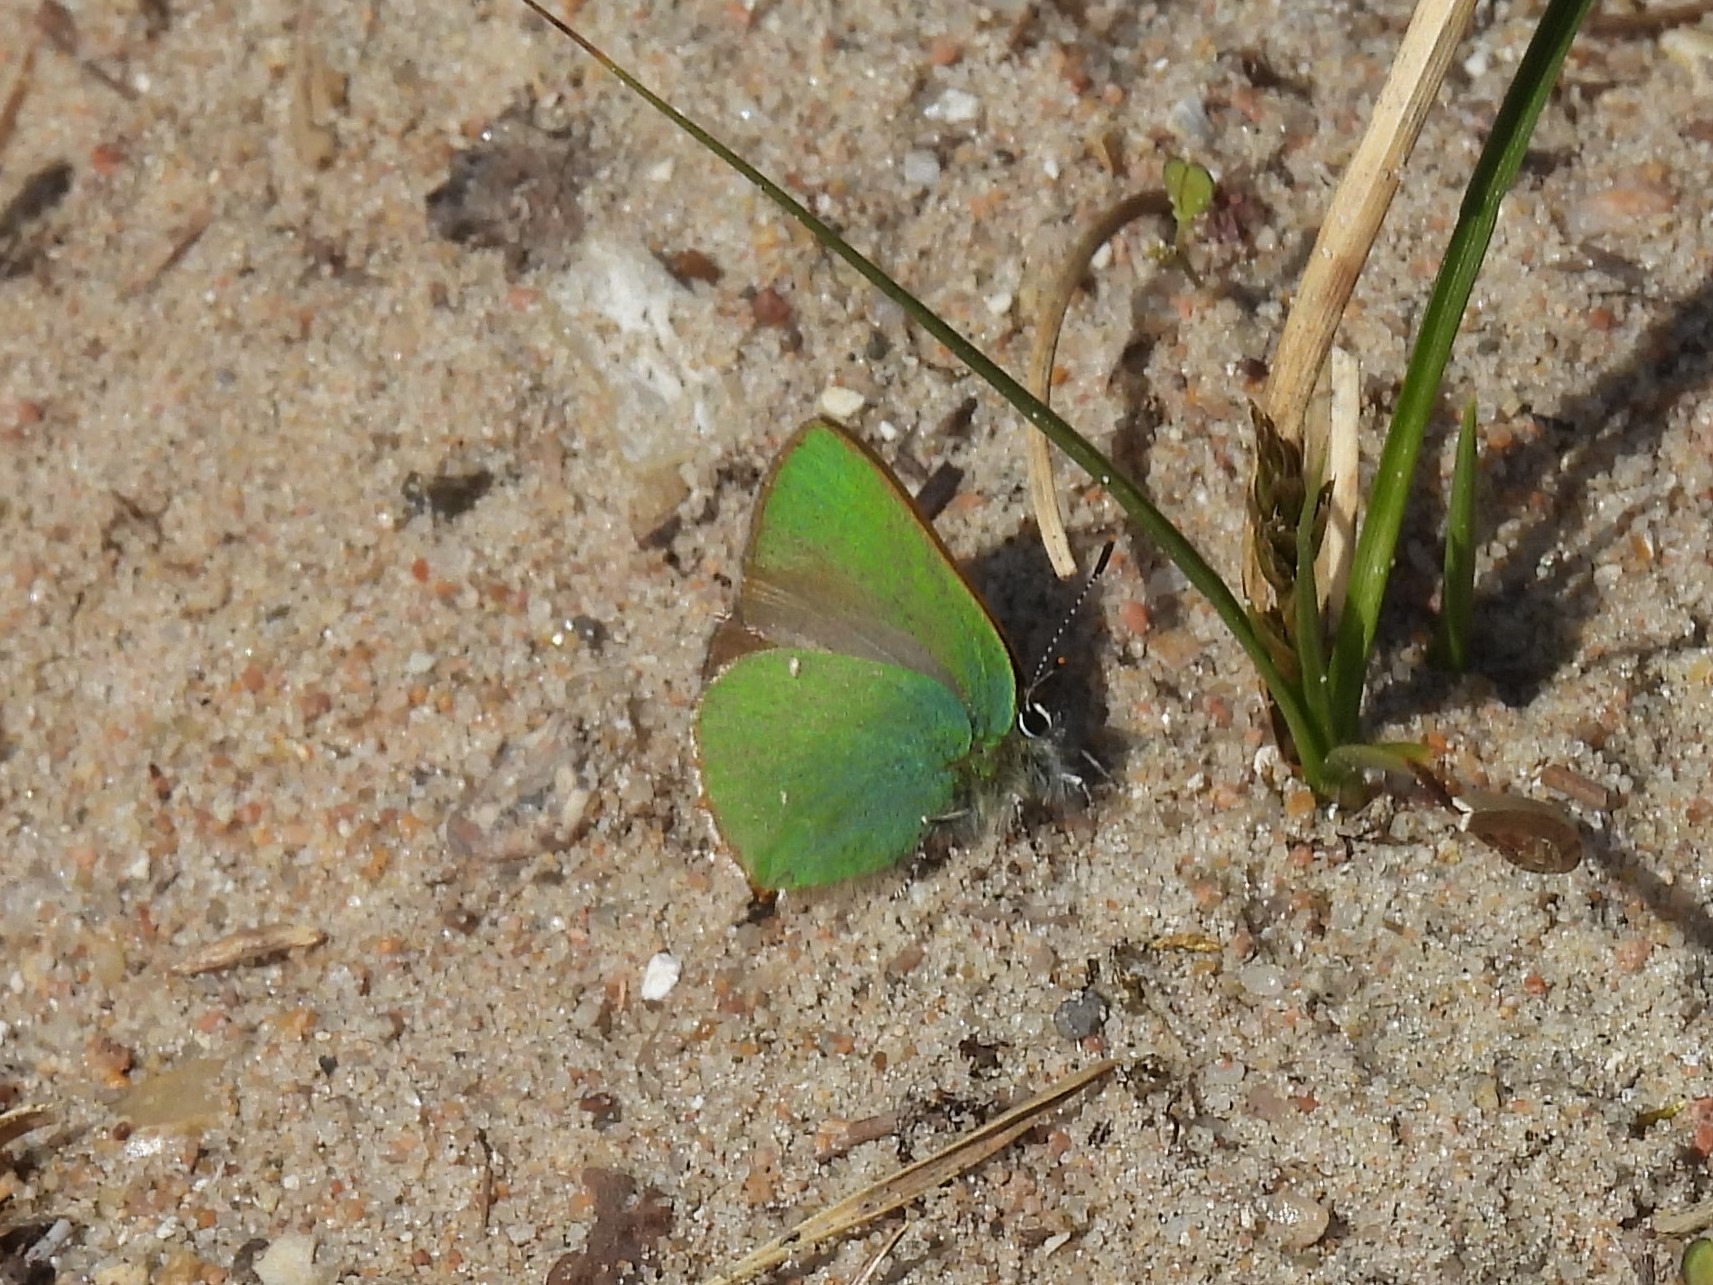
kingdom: Animalia
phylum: Arthropoda
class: Insecta
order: Lepidoptera
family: Lycaenidae
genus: Callophrys
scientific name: Callophrys rubi
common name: Grøn busksommerfugl
